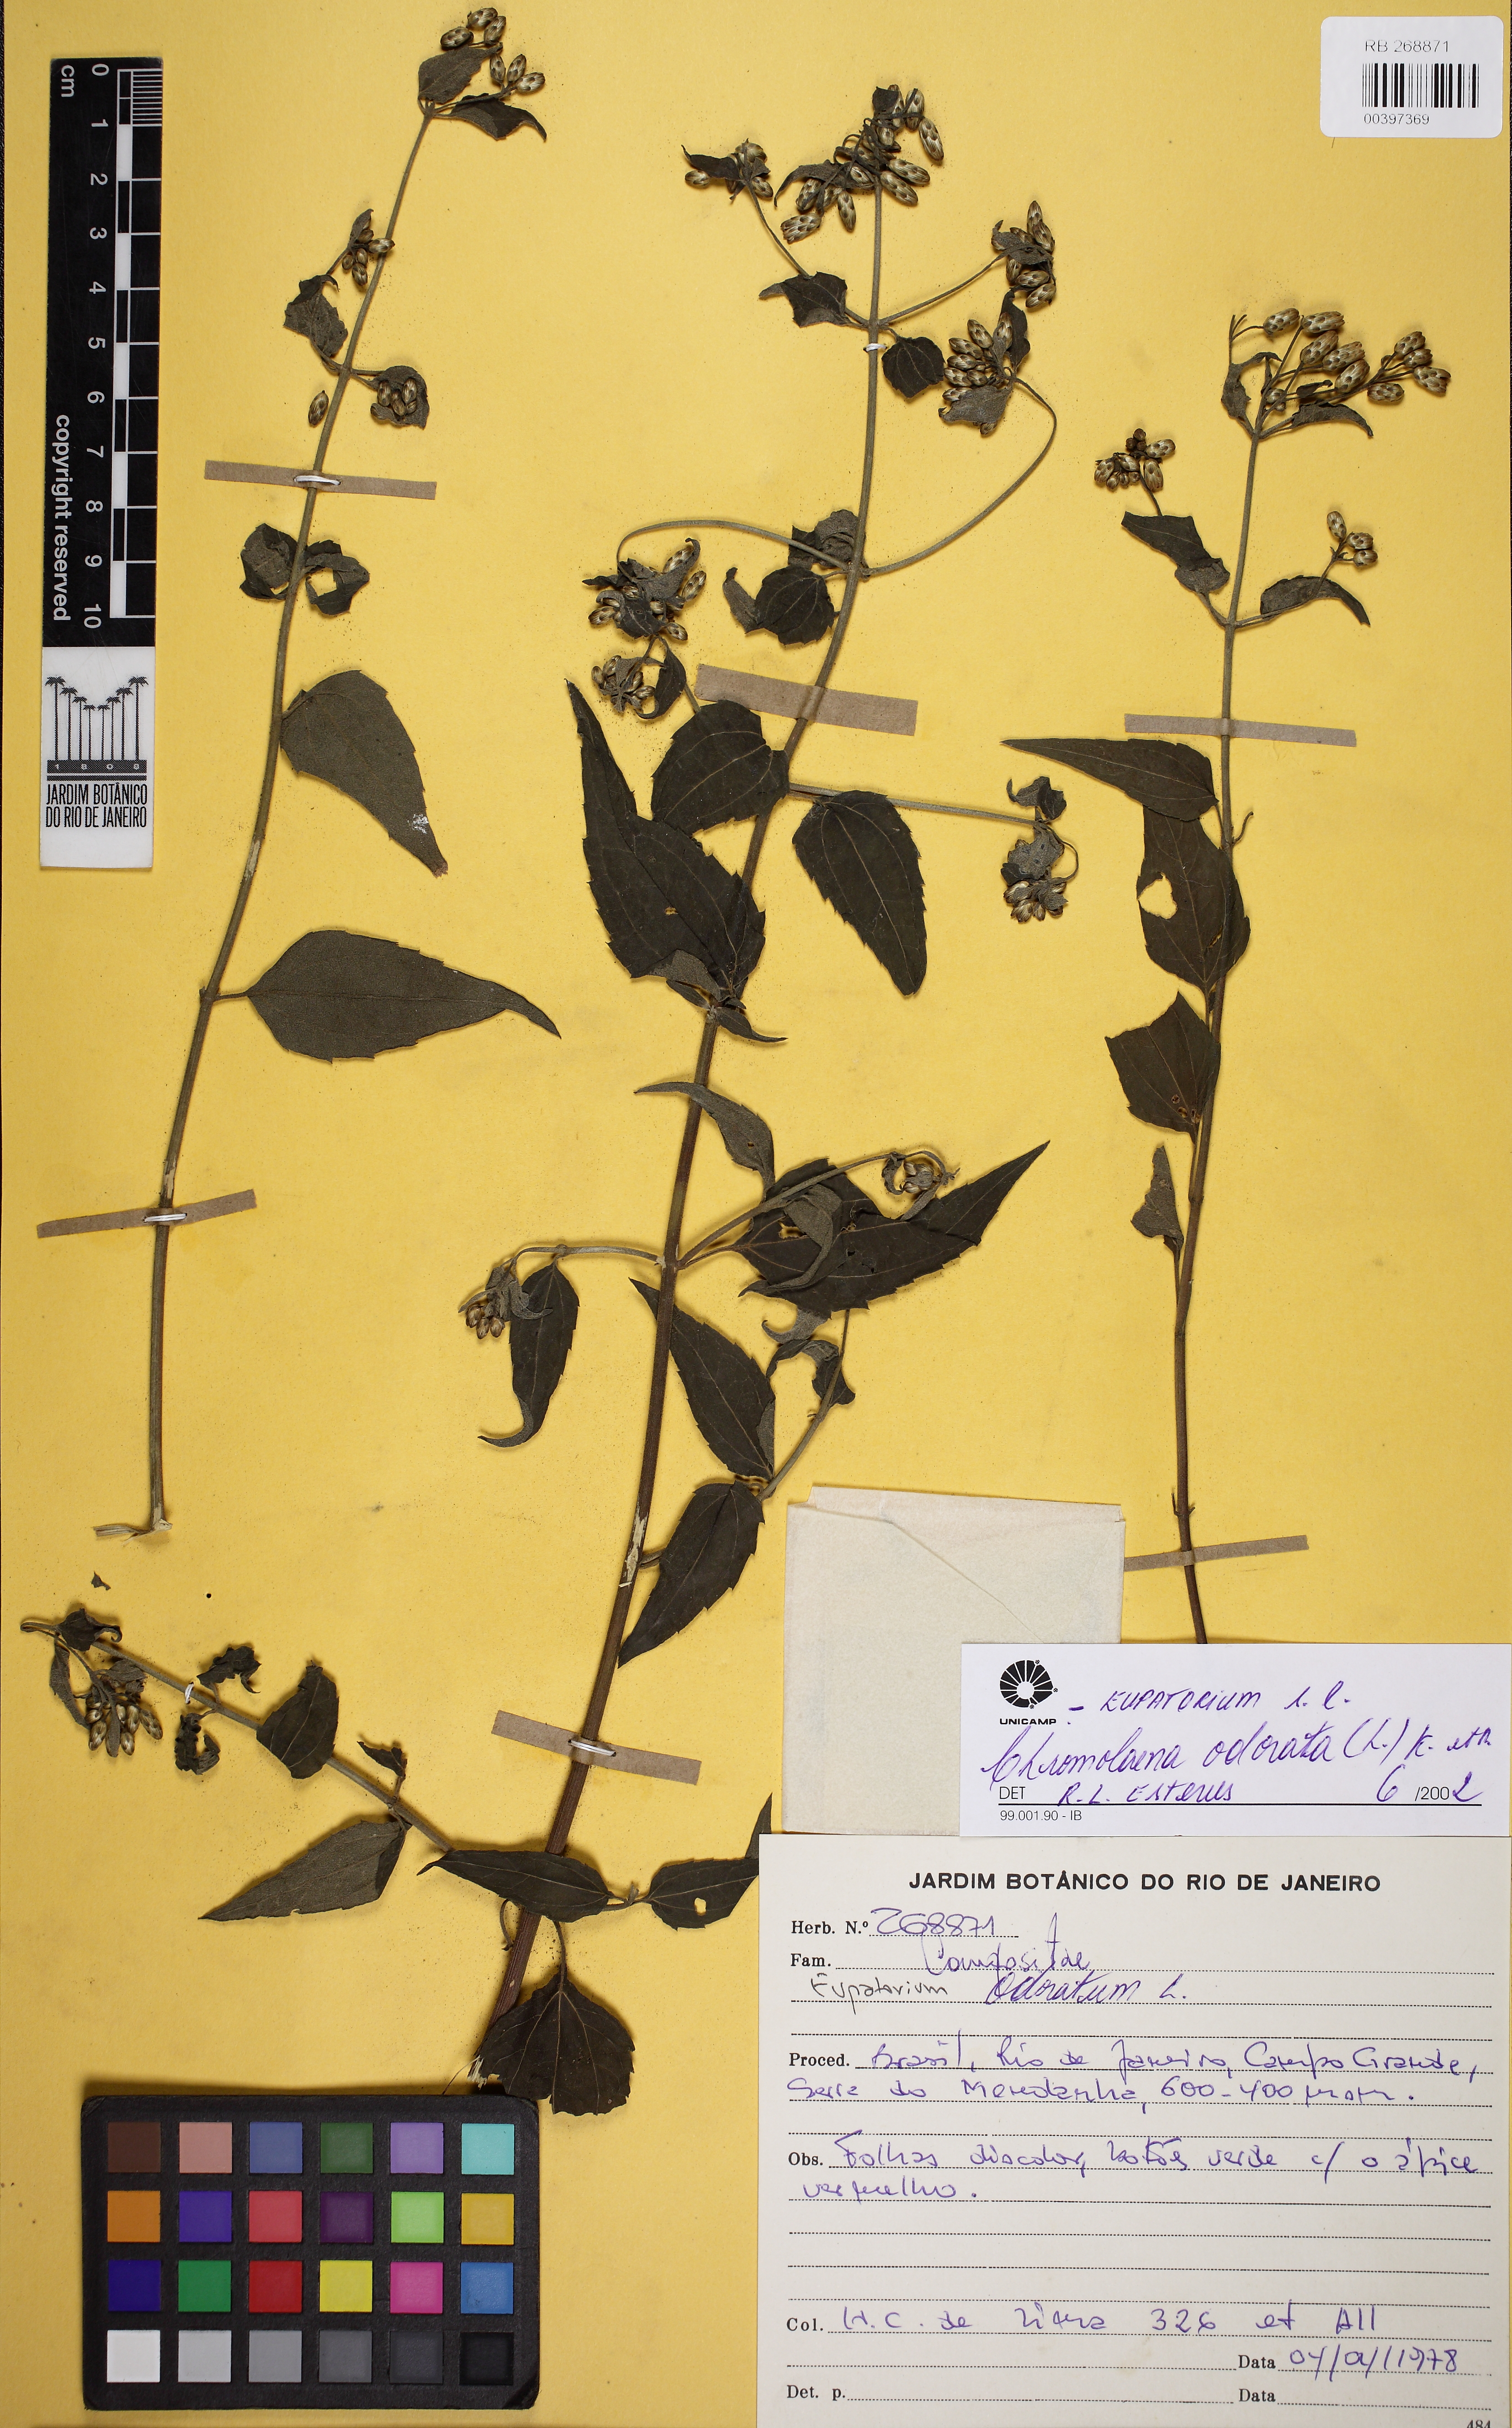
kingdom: Plantae
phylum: Tracheophyta
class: Magnoliopsida
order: Asterales
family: Asteraceae
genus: Chromolaena
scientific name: Chromolaena odorata
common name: Siamweed
